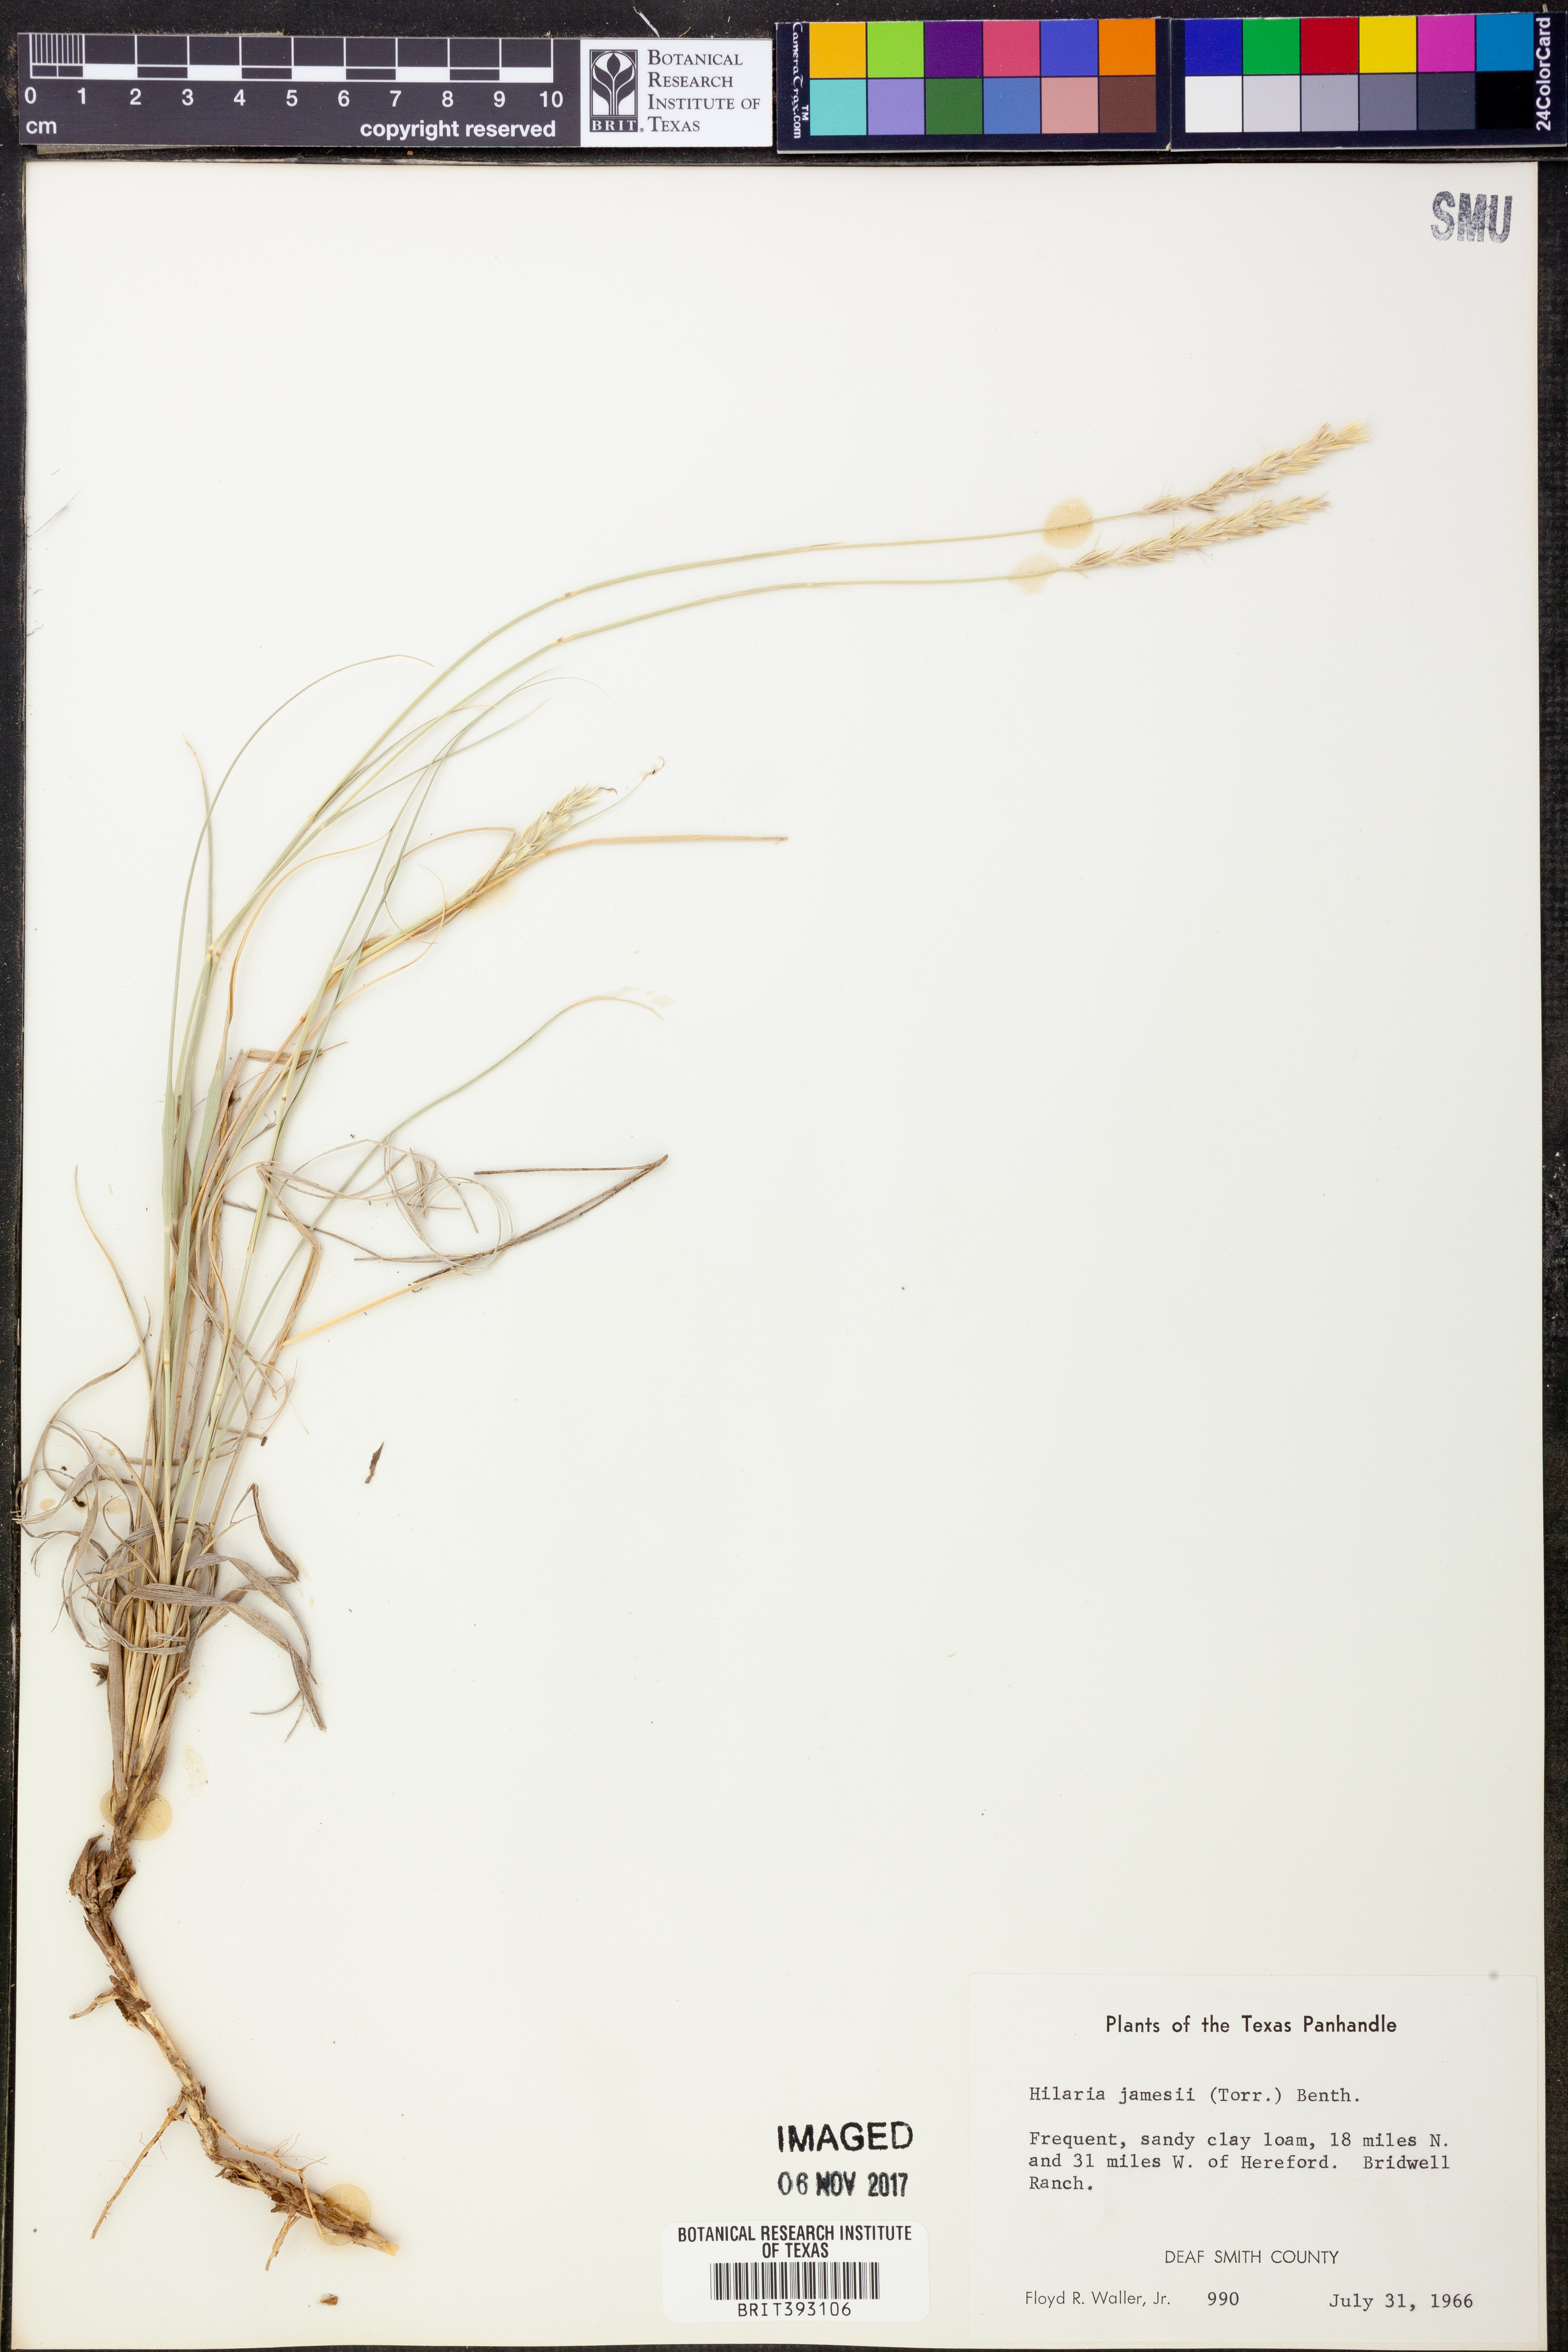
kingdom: Plantae
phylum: Tracheophyta
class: Liliopsida
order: Poales
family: Poaceae
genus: Hilaria
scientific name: Hilaria jamesii
